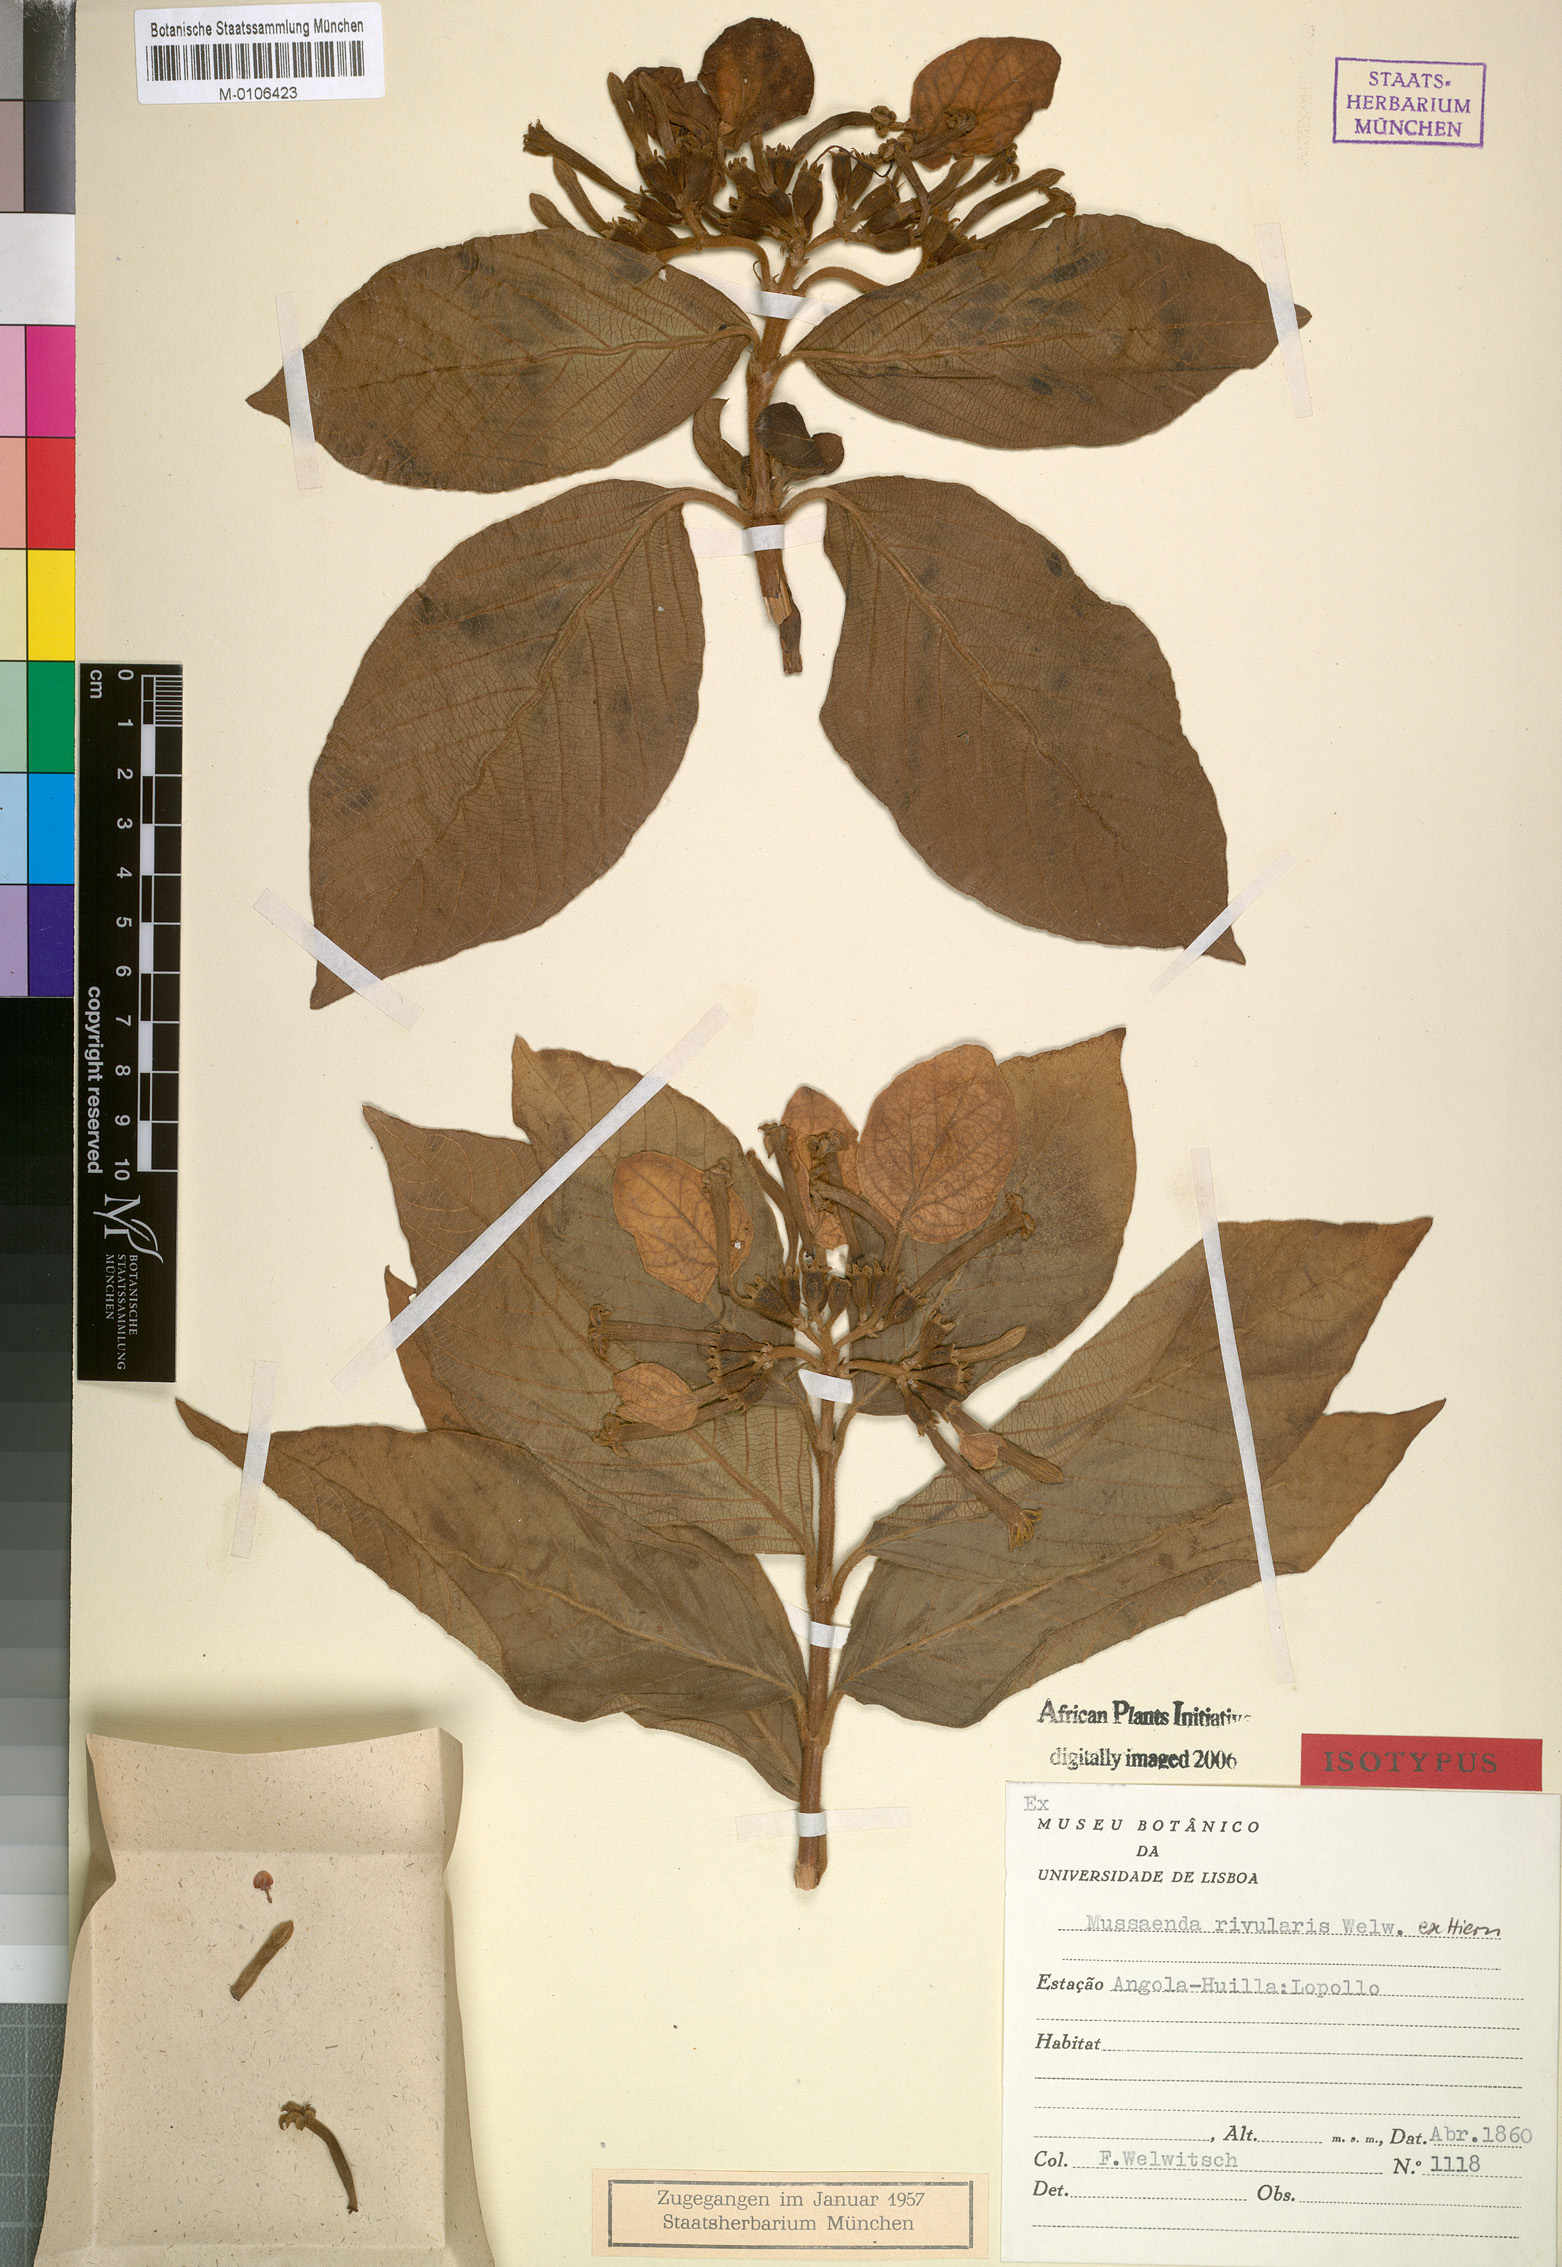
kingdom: Plantae
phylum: Tracheophyta
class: Magnoliopsida
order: Gentianales
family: Rubiaceae
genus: Mussaenda
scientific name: Mussaenda rivularis
